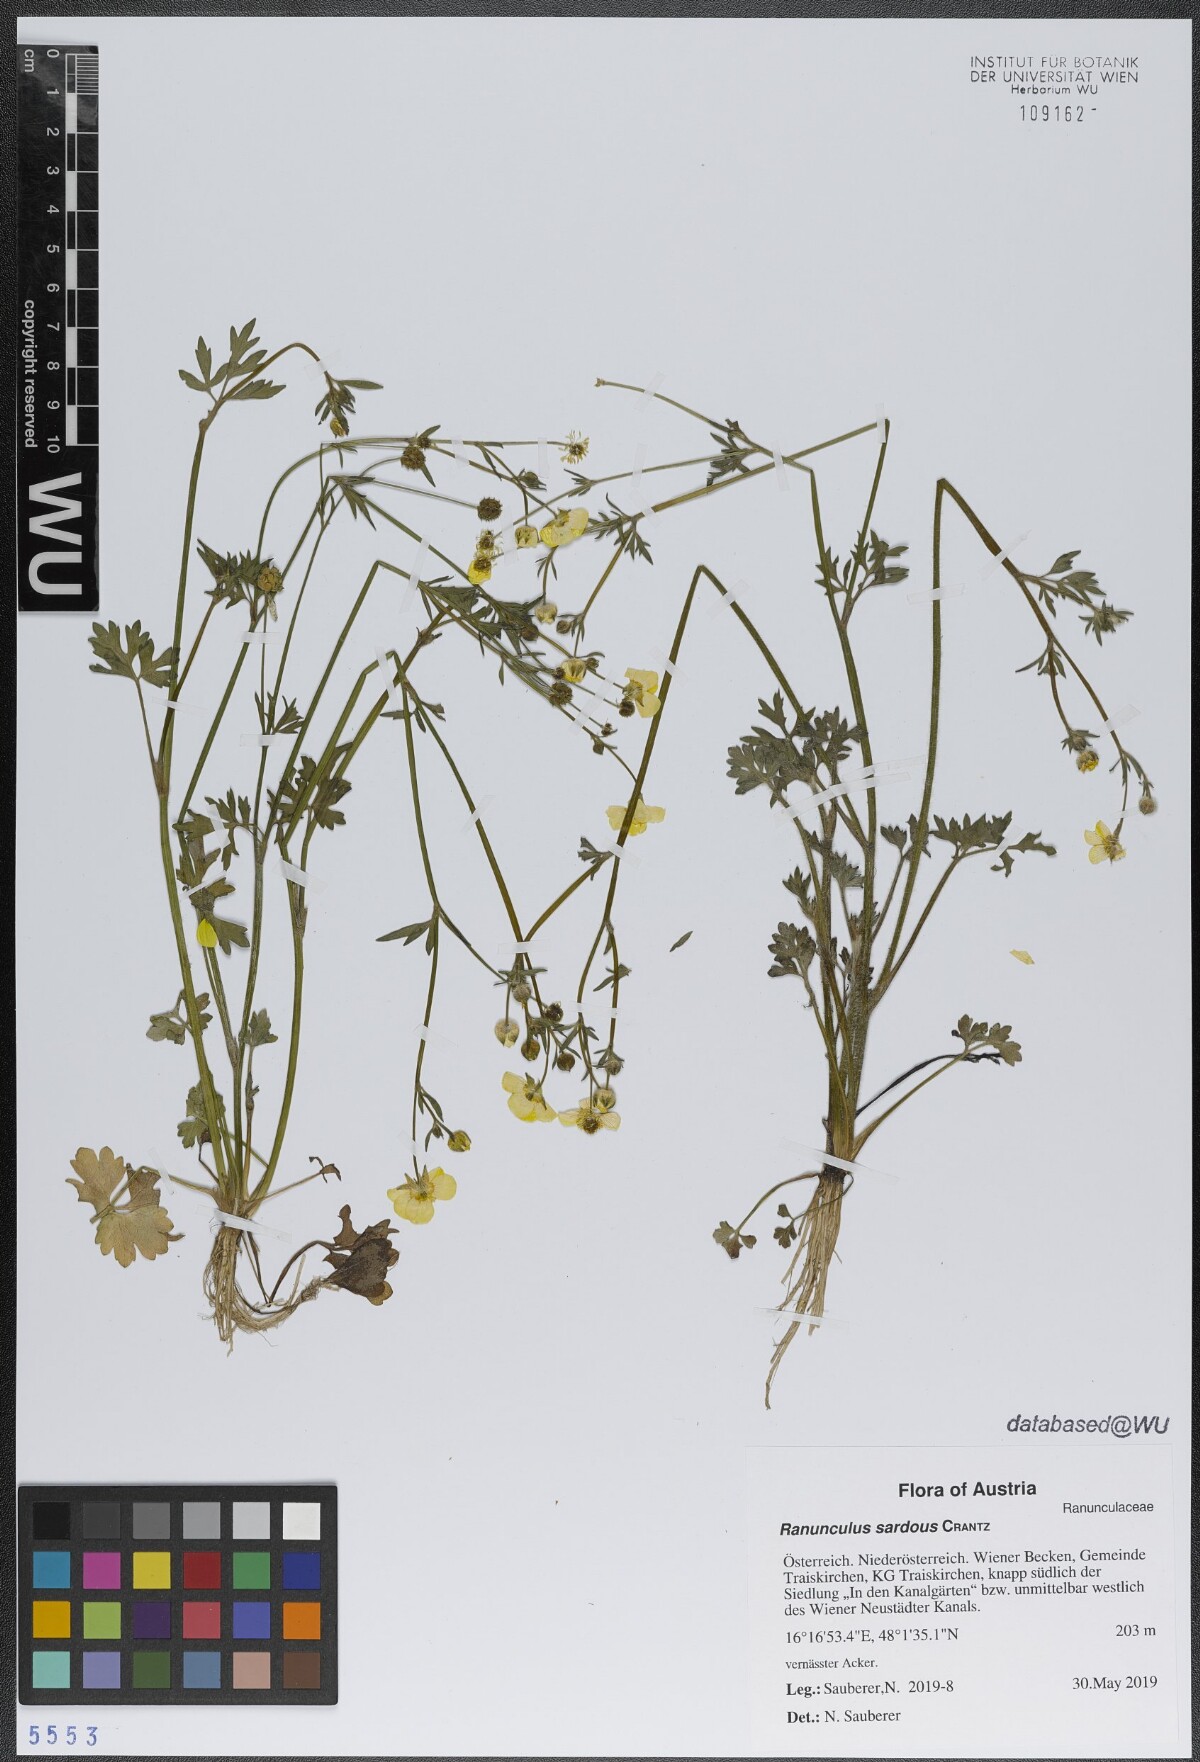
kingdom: Plantae
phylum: Tracheophyta
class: Magnoliopsida
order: Ranunculales
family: Ranunculaceae
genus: Ranunculus
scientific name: Ranunculus sardous
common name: Hairy buttercup
